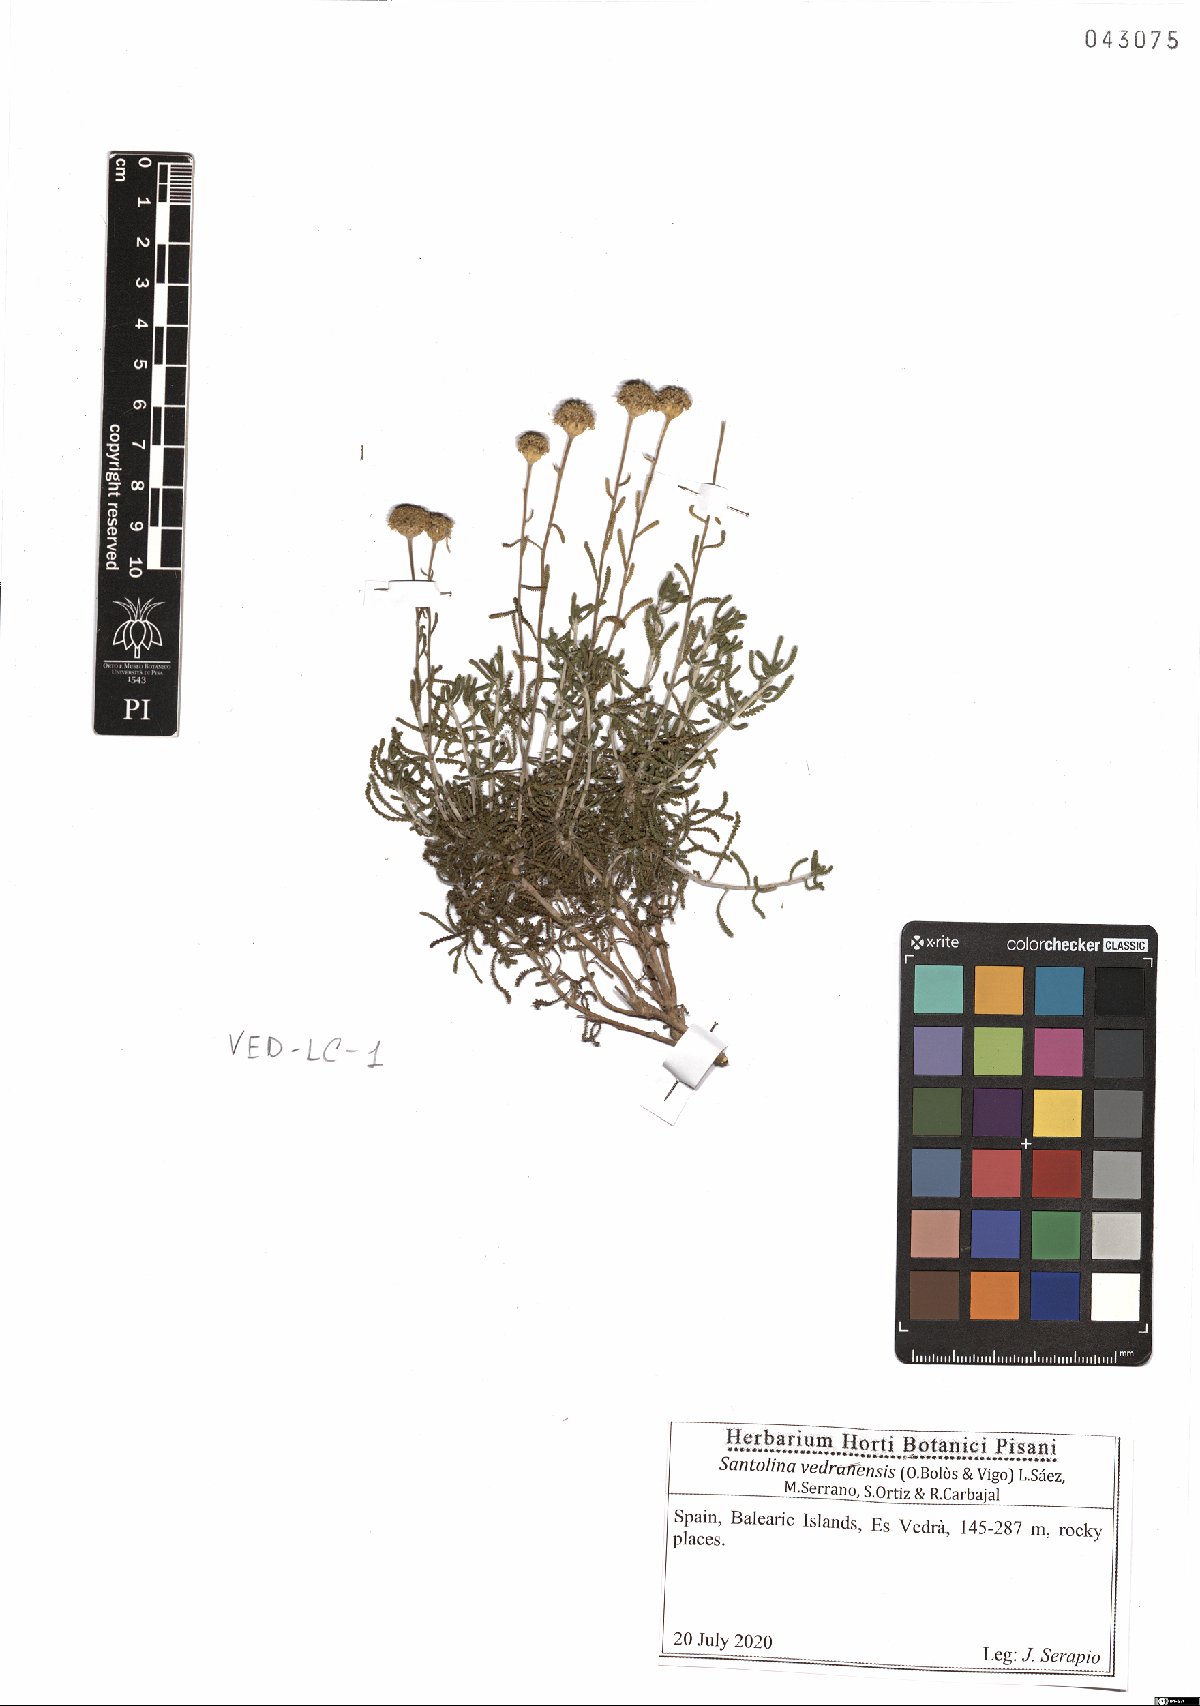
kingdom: Plantae
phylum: Tracheophyta
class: Magnoliopsida
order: Asterales
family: Asteraceae
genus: Santolina
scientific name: Santolina vedranensis
